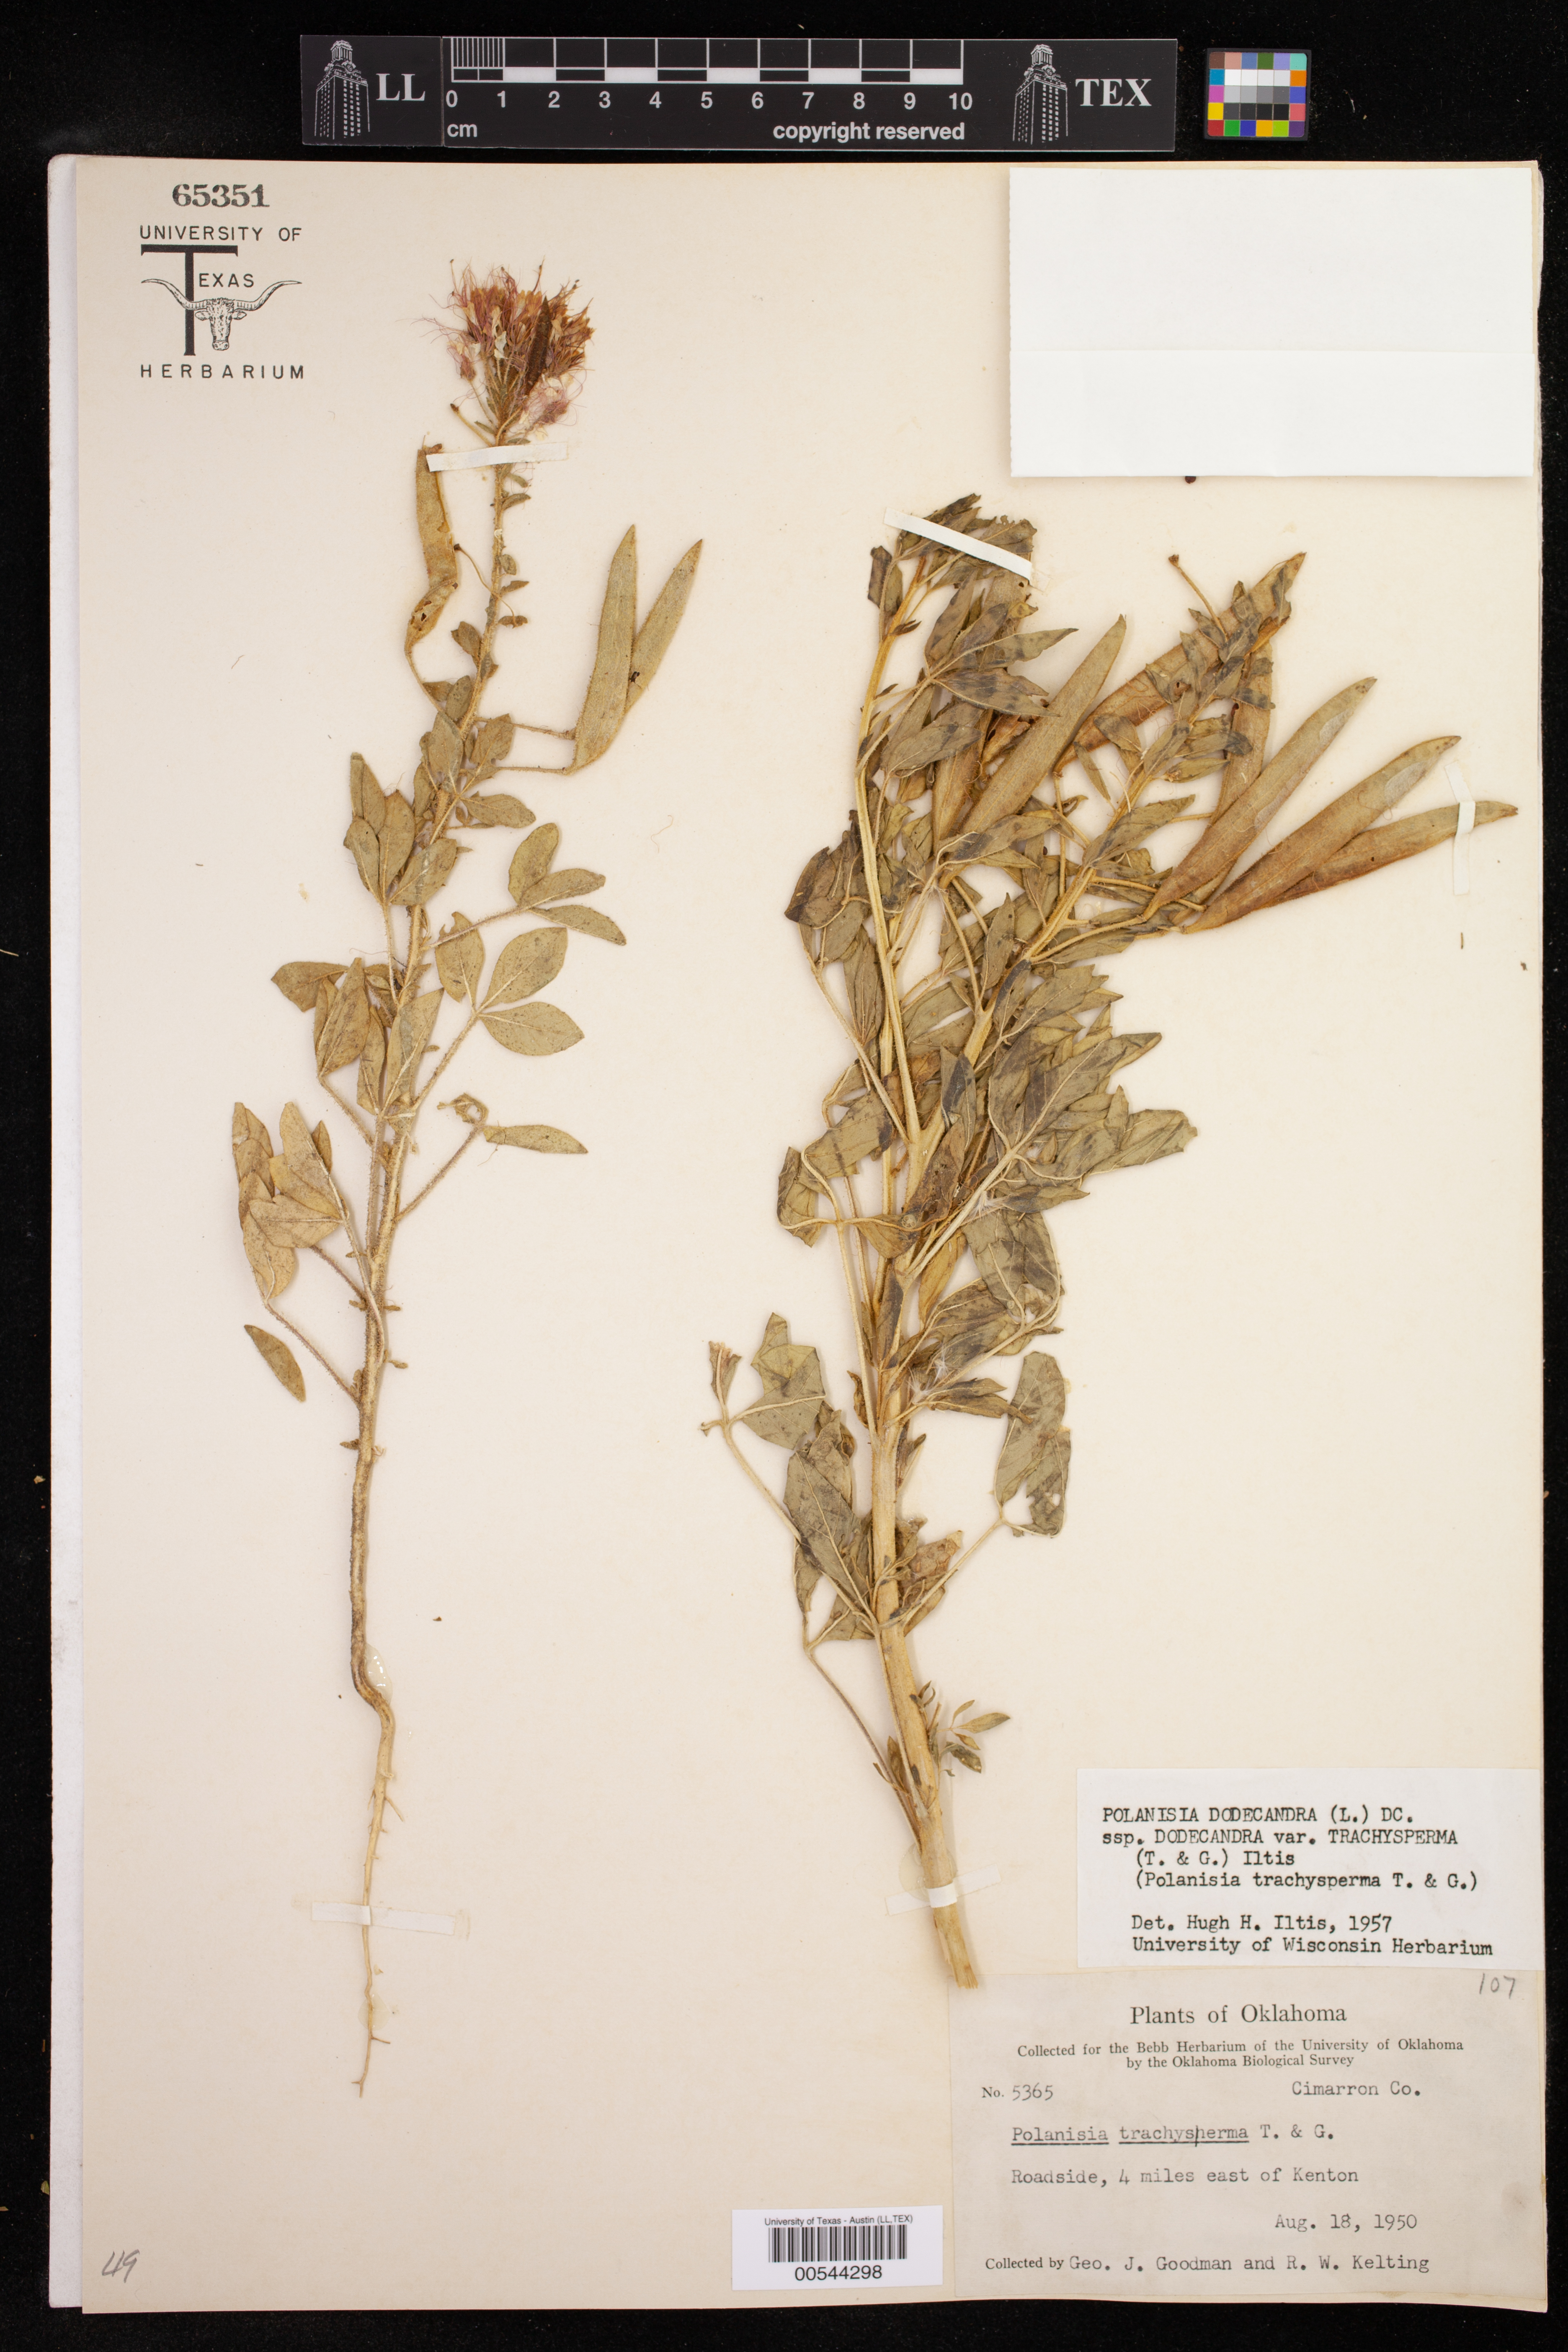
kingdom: Plantae
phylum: Tracheophyta
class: Magnoliopsida
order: Brassicales
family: Cleomaceae
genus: Polanisia
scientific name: Polanisia dodecandra
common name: Clammyweed
